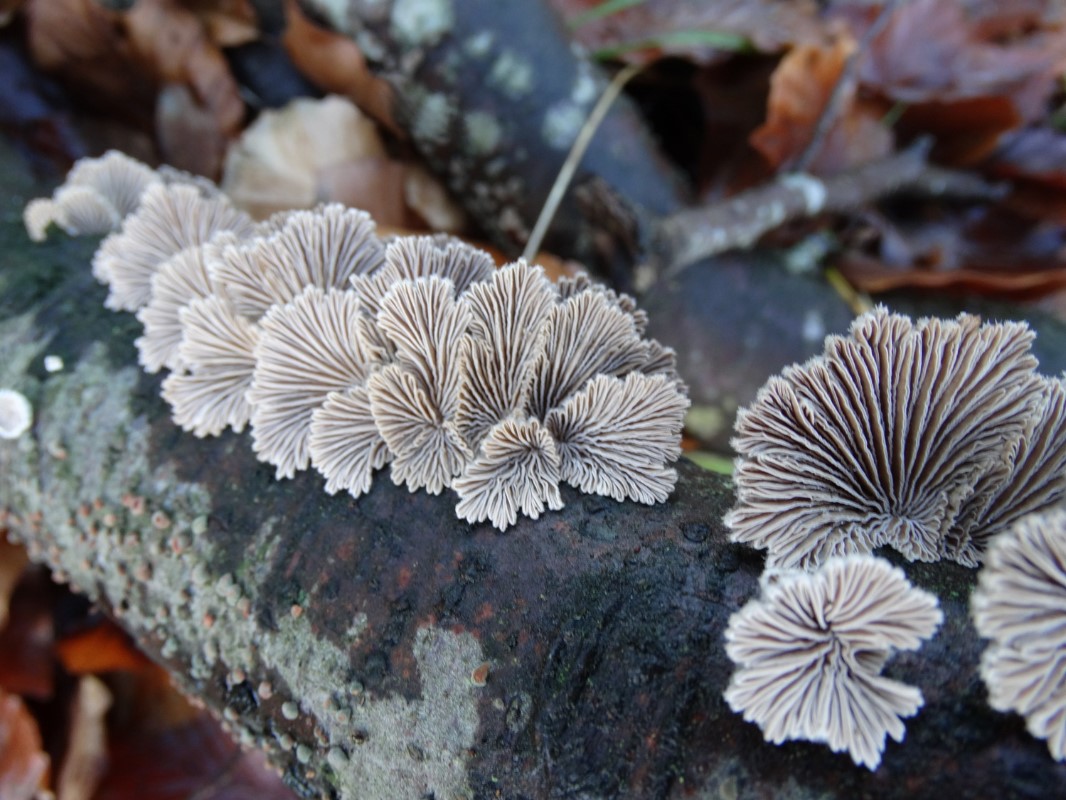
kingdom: Fungi
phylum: Basidiomycota
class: Agaricomycetes
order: Agaricales
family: Schizophyllaceae
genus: Schizophyllum
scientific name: Schizophyllum commune
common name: kløvblad
